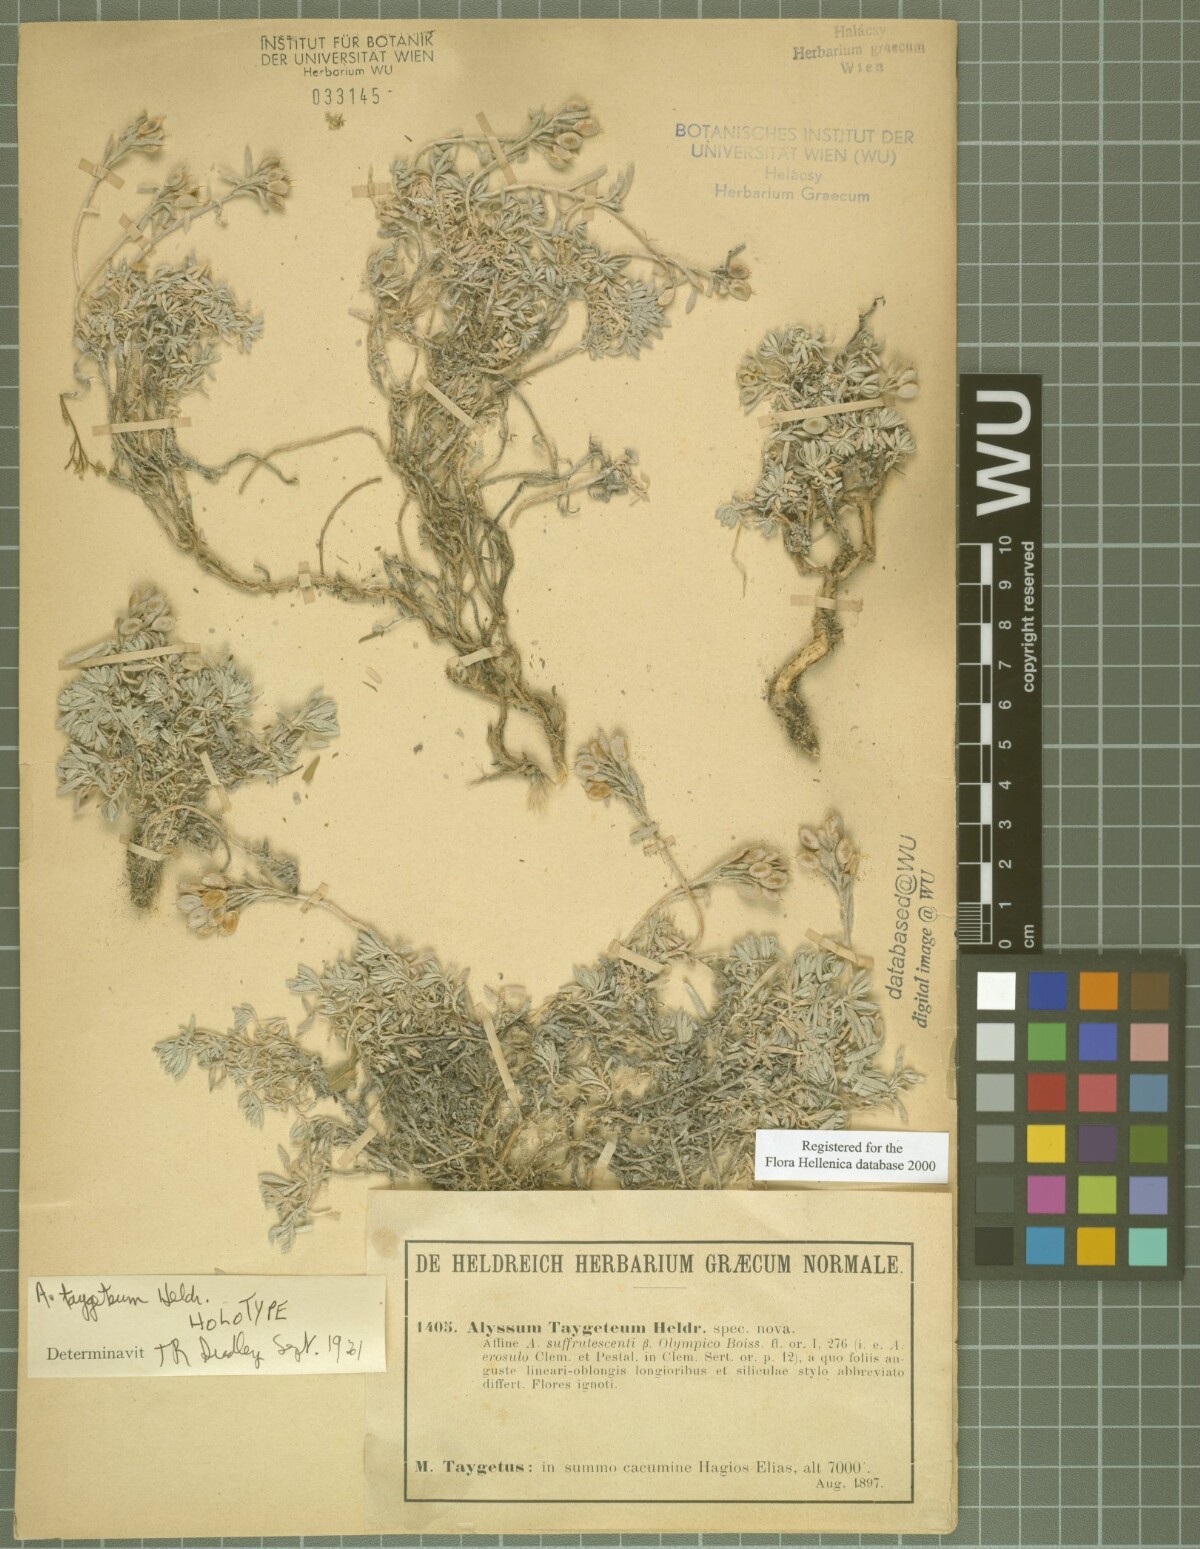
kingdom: Plantae
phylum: Tracheophyta
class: Magnoliopsida
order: Brassicales
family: Brassicaceae
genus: Alyssum
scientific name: Alyssum taygeteum
